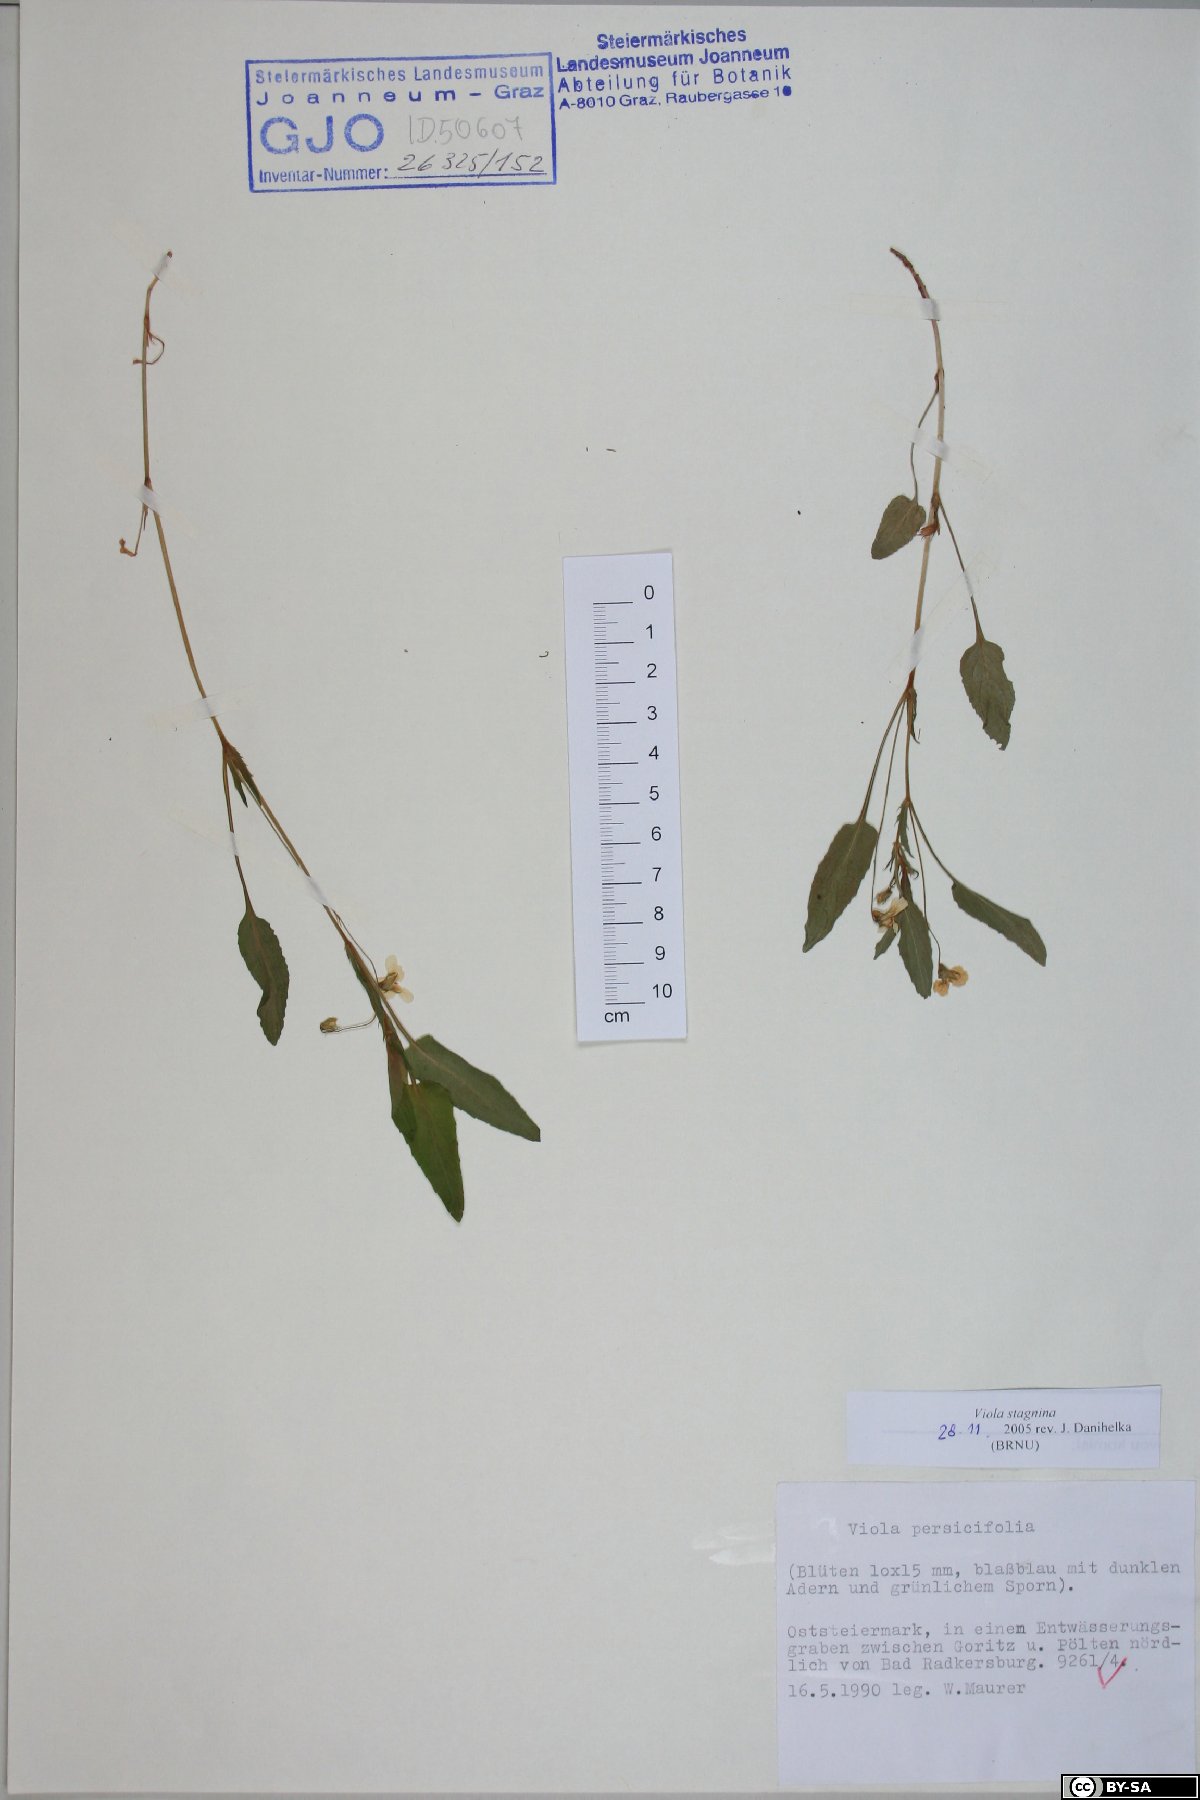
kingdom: Plantae
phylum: Tracheophyta
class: Magnoliopsida
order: Malpighiales
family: Violaceae
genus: Viola
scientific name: Viola stagnina
